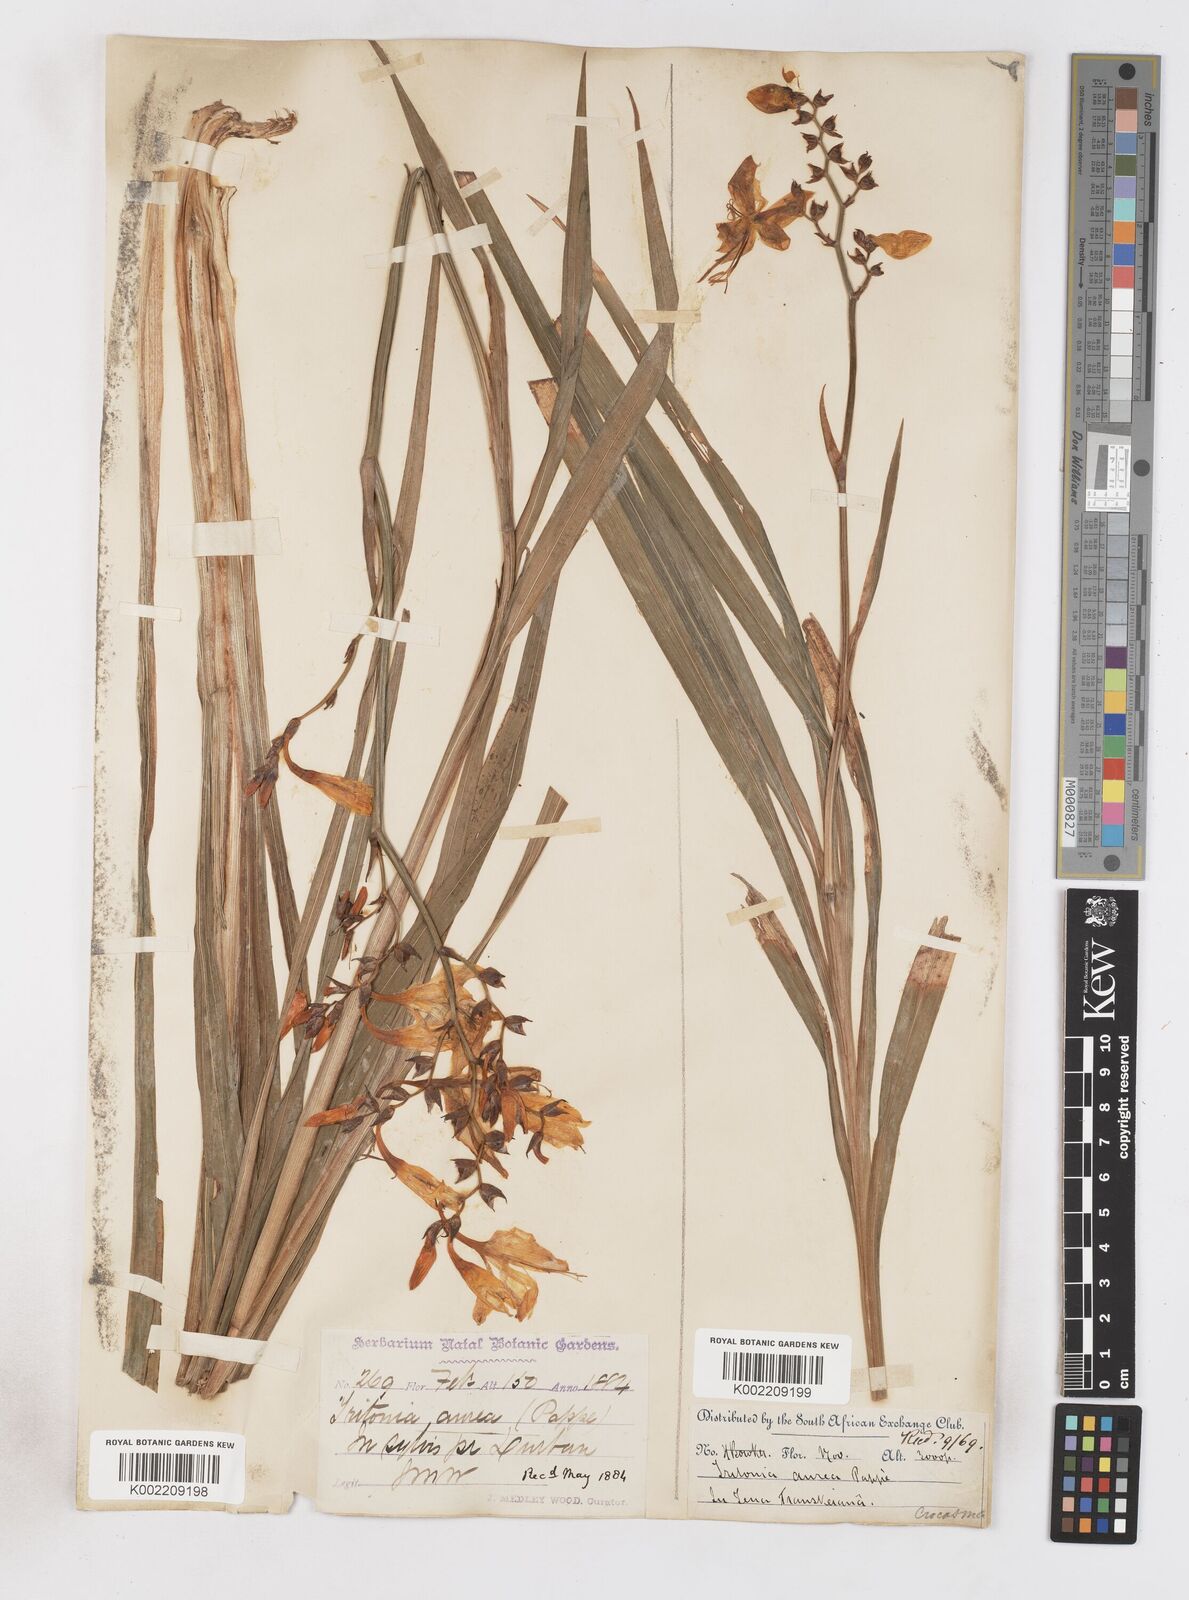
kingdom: Plantae
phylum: Tracheophyta
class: Liliopsida
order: Asparagales
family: Iridaceae
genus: Crocosmia
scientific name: Crocosmia aurea
